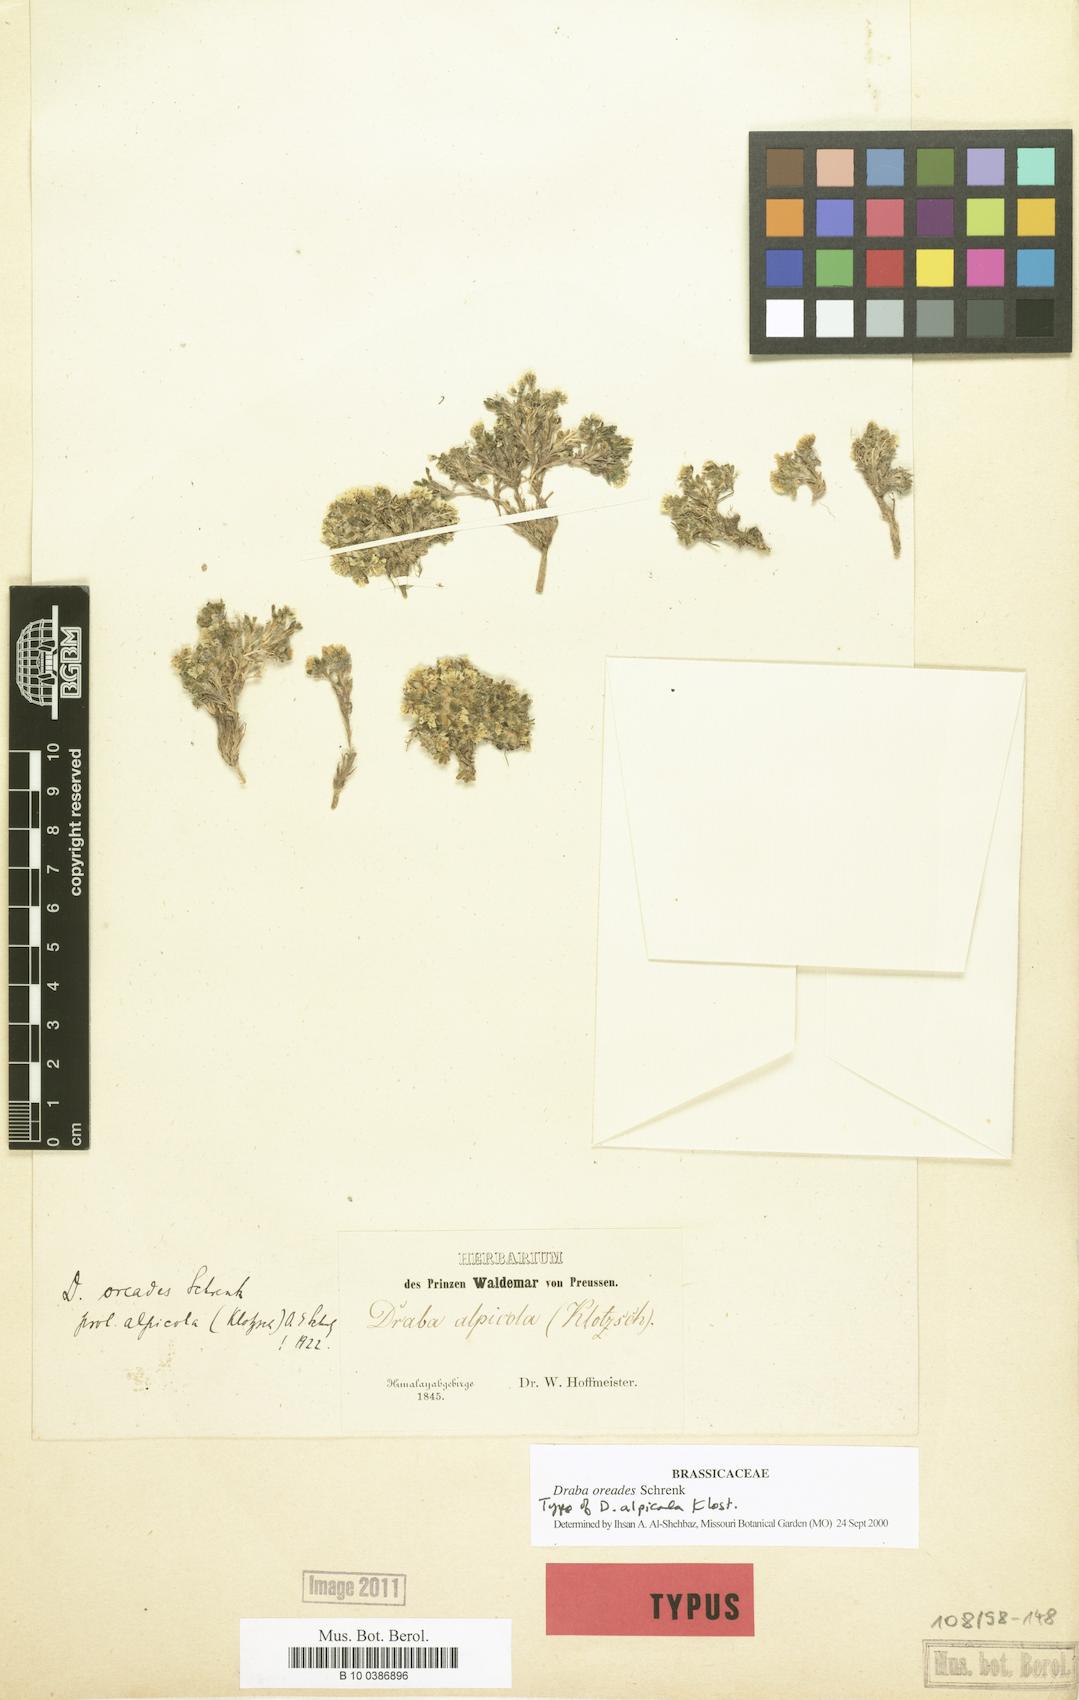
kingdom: Plantae
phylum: Tracheophyta
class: Magnoliopsida
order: Brassicales
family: Brassicaceae
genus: Draba
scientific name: Draba oreades
